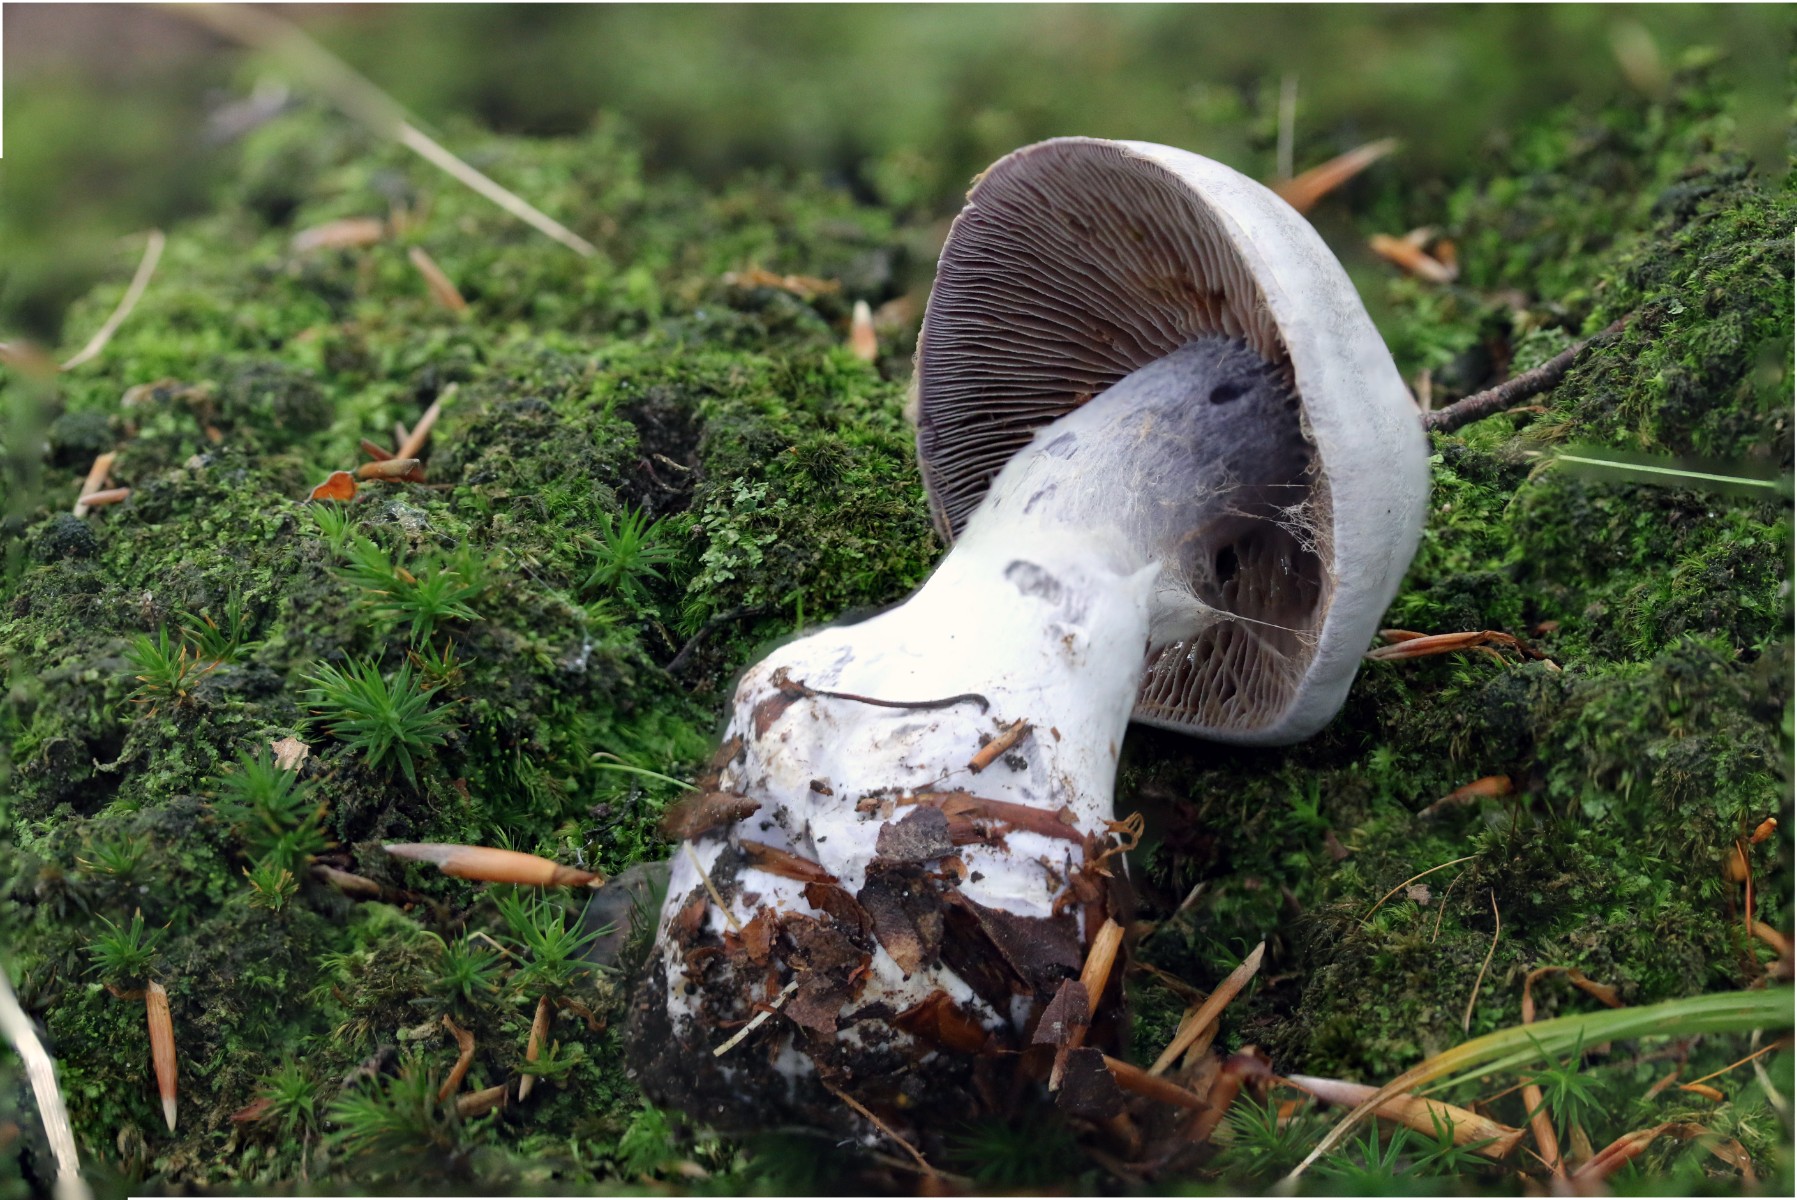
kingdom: Fungi
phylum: Basidiomycota
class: Agaricomycetes
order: Agaricales
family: Cortinariaceae
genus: Cortinarius
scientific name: Cortinarius alboviolaceus
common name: lysviolet slørhat
